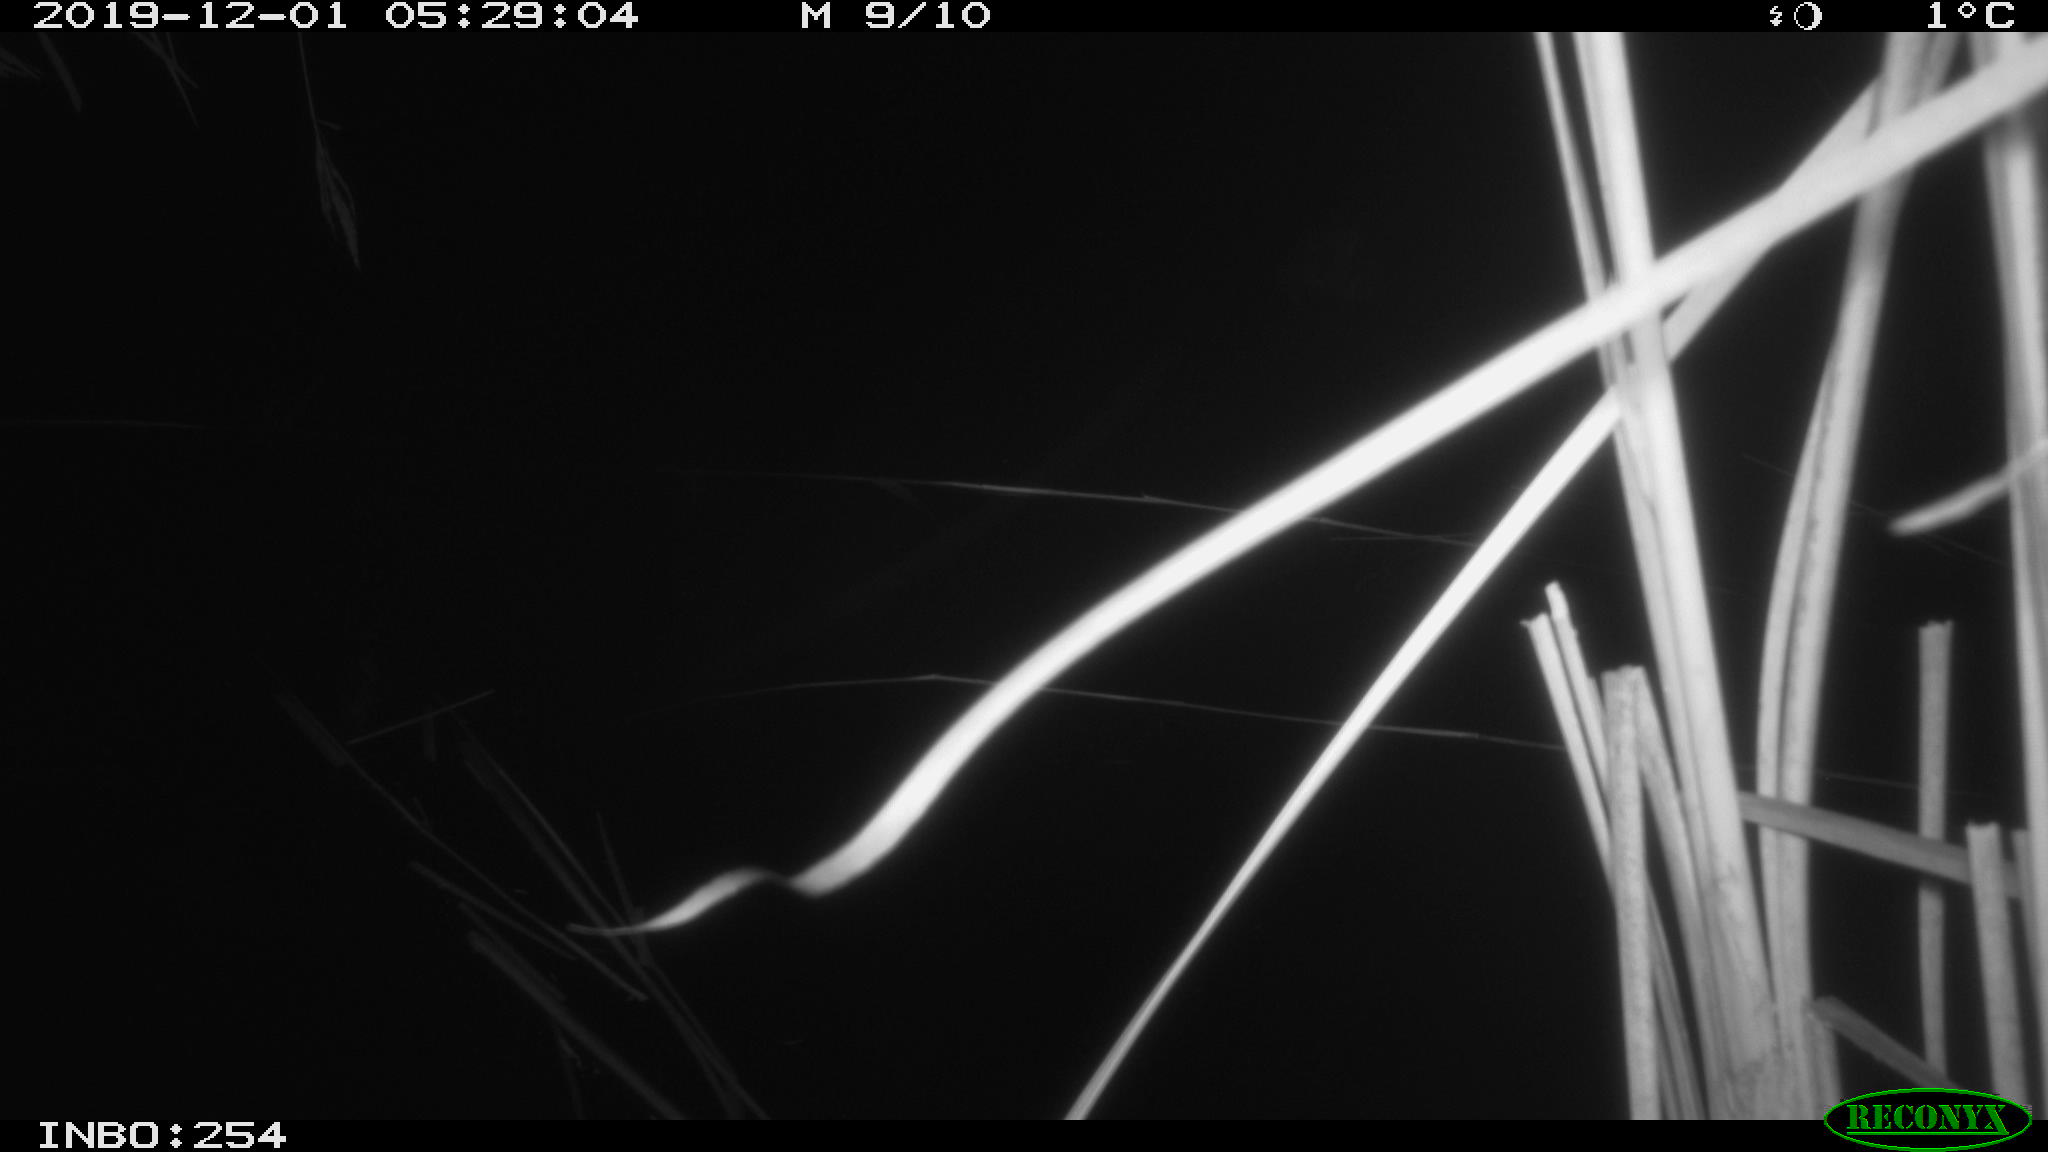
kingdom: Animalia
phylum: Chordata
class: Aves
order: Gruiformes
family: Rallidae
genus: Fulica
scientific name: Fulica atra
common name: Eurasian coot
